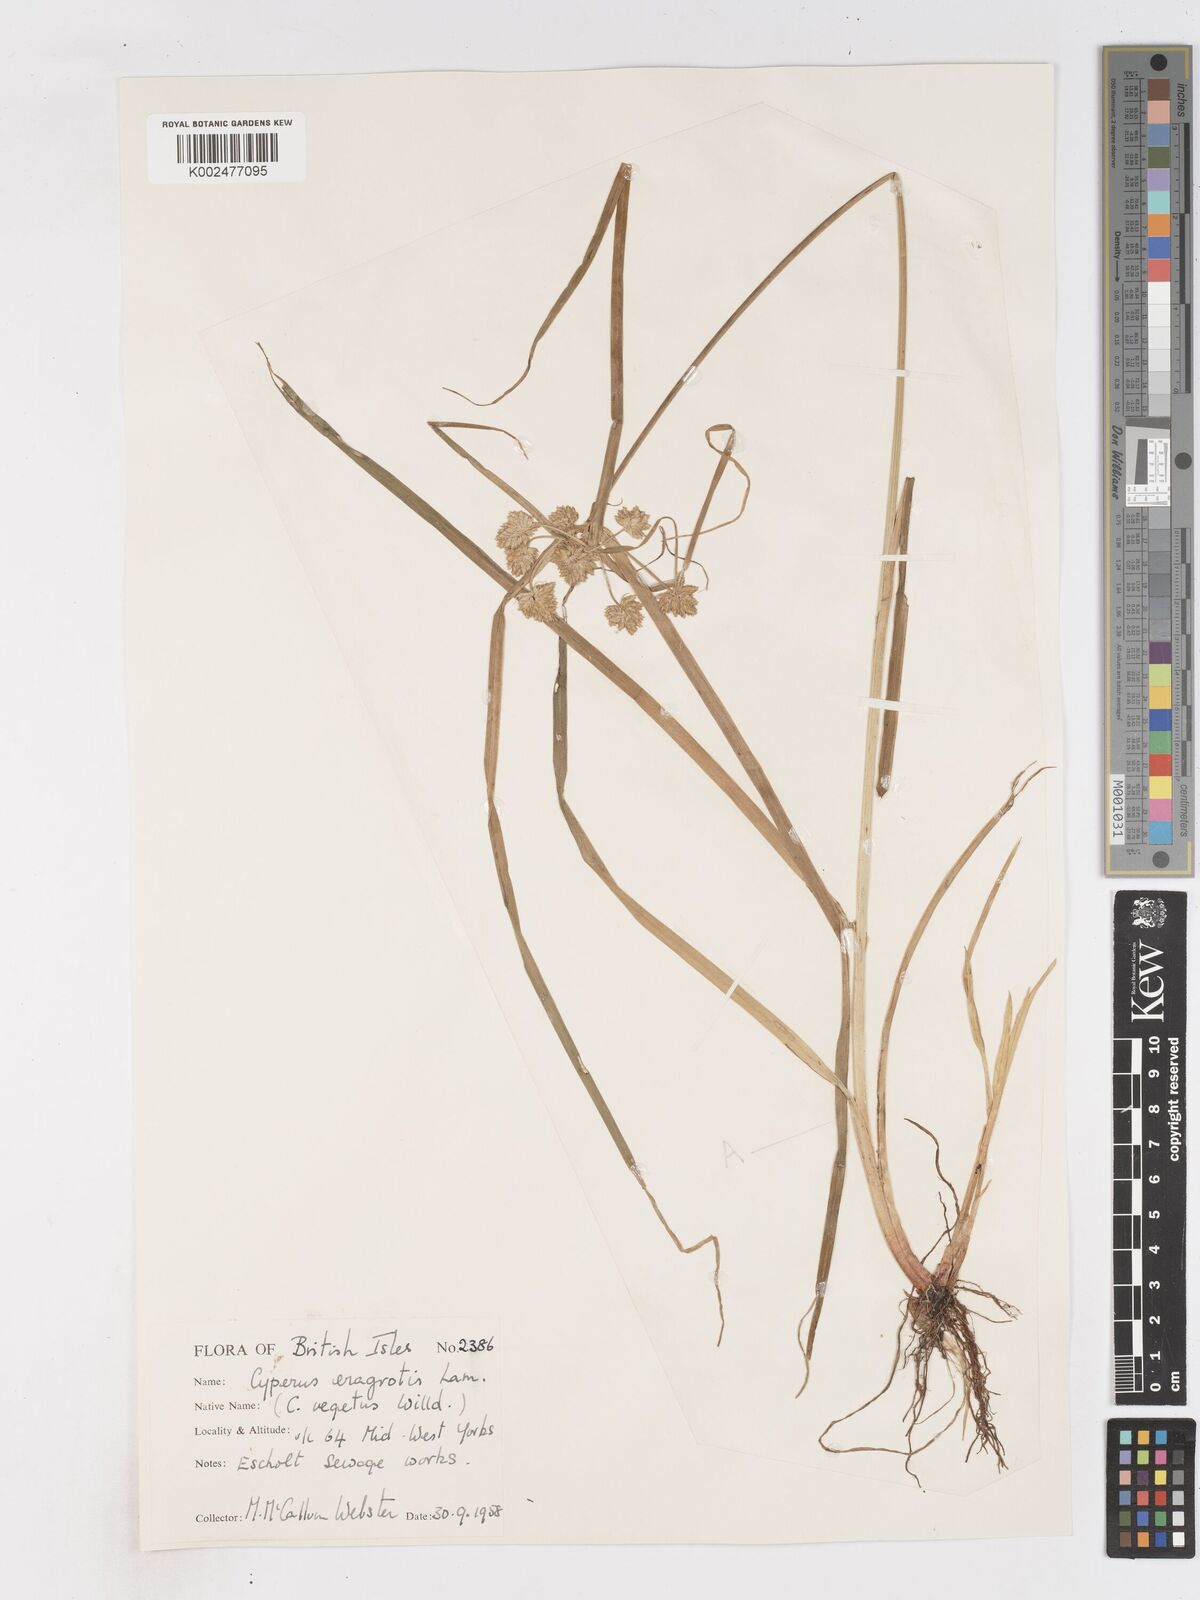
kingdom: Plantae
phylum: Tracheophyta
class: Liliopsida
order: Poales
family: Cyperaceae
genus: Cyperus
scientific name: Cyperus eragrostis
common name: Tall flatsedge
